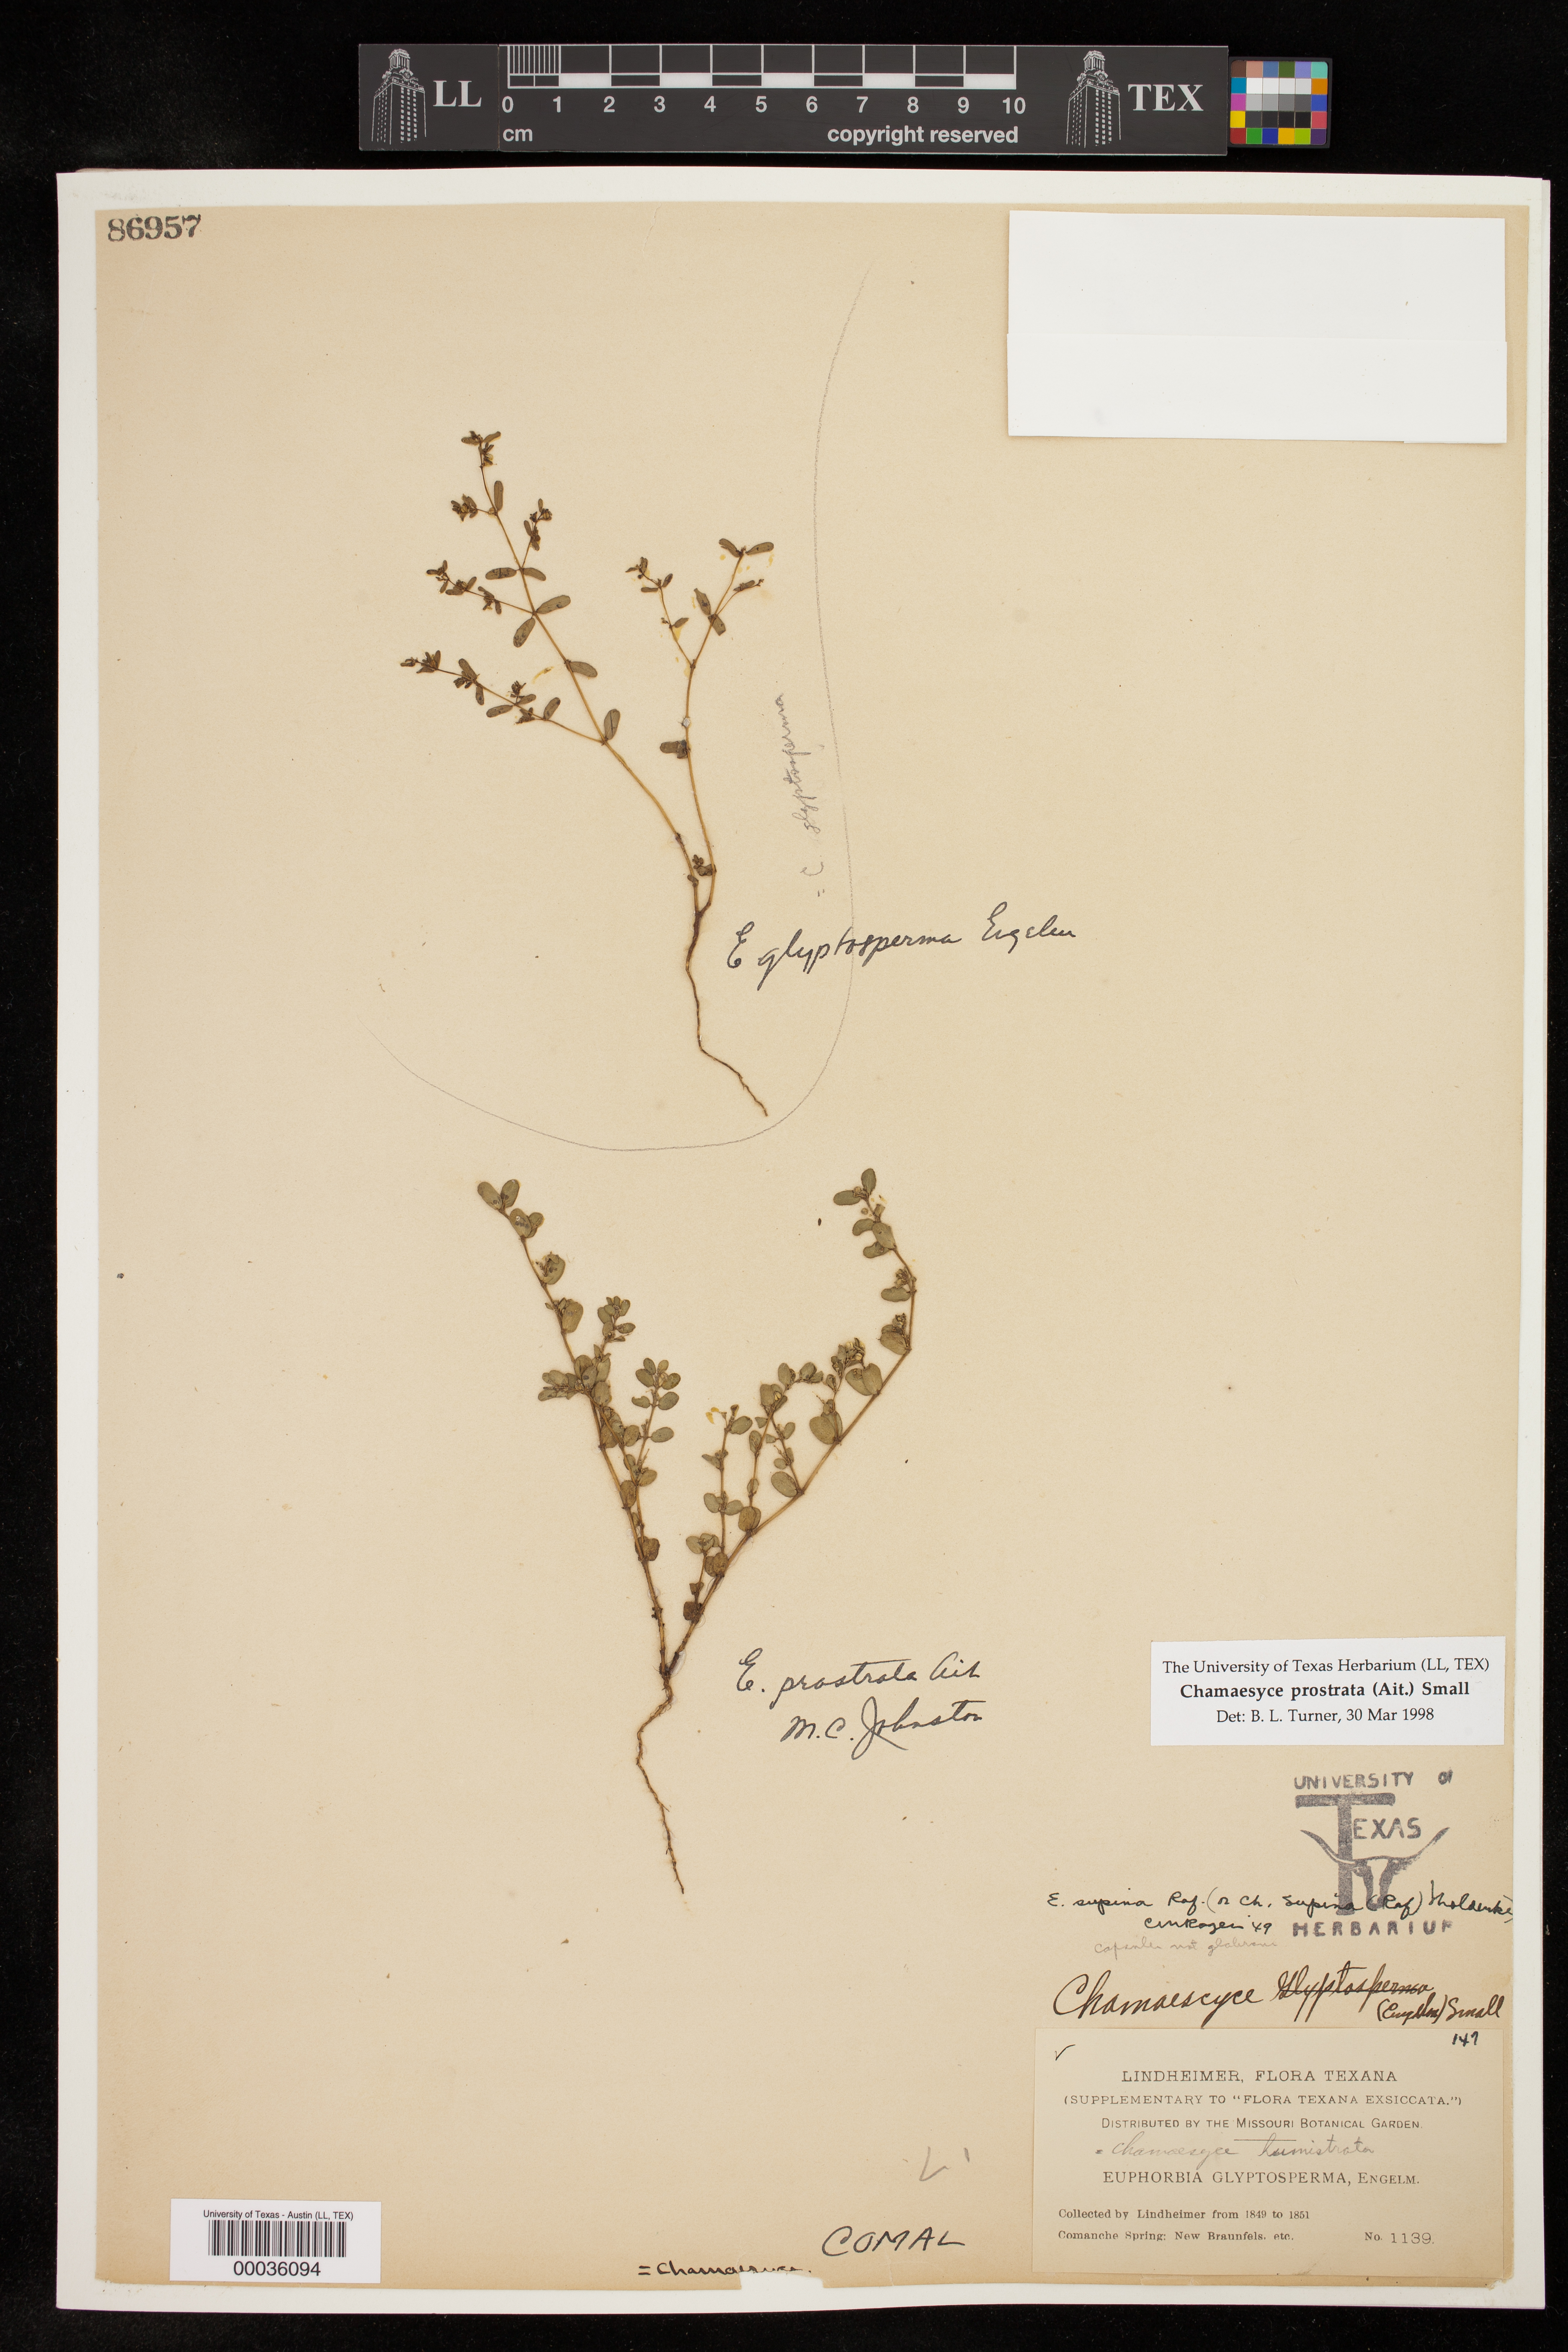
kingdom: Plantae
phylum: Tracheophyta
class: Magnoliopsida
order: Malpighiales
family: Euphorbiaceae
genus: Euphorbia
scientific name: Euphorbia prostrata
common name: Prostrate sandmat
